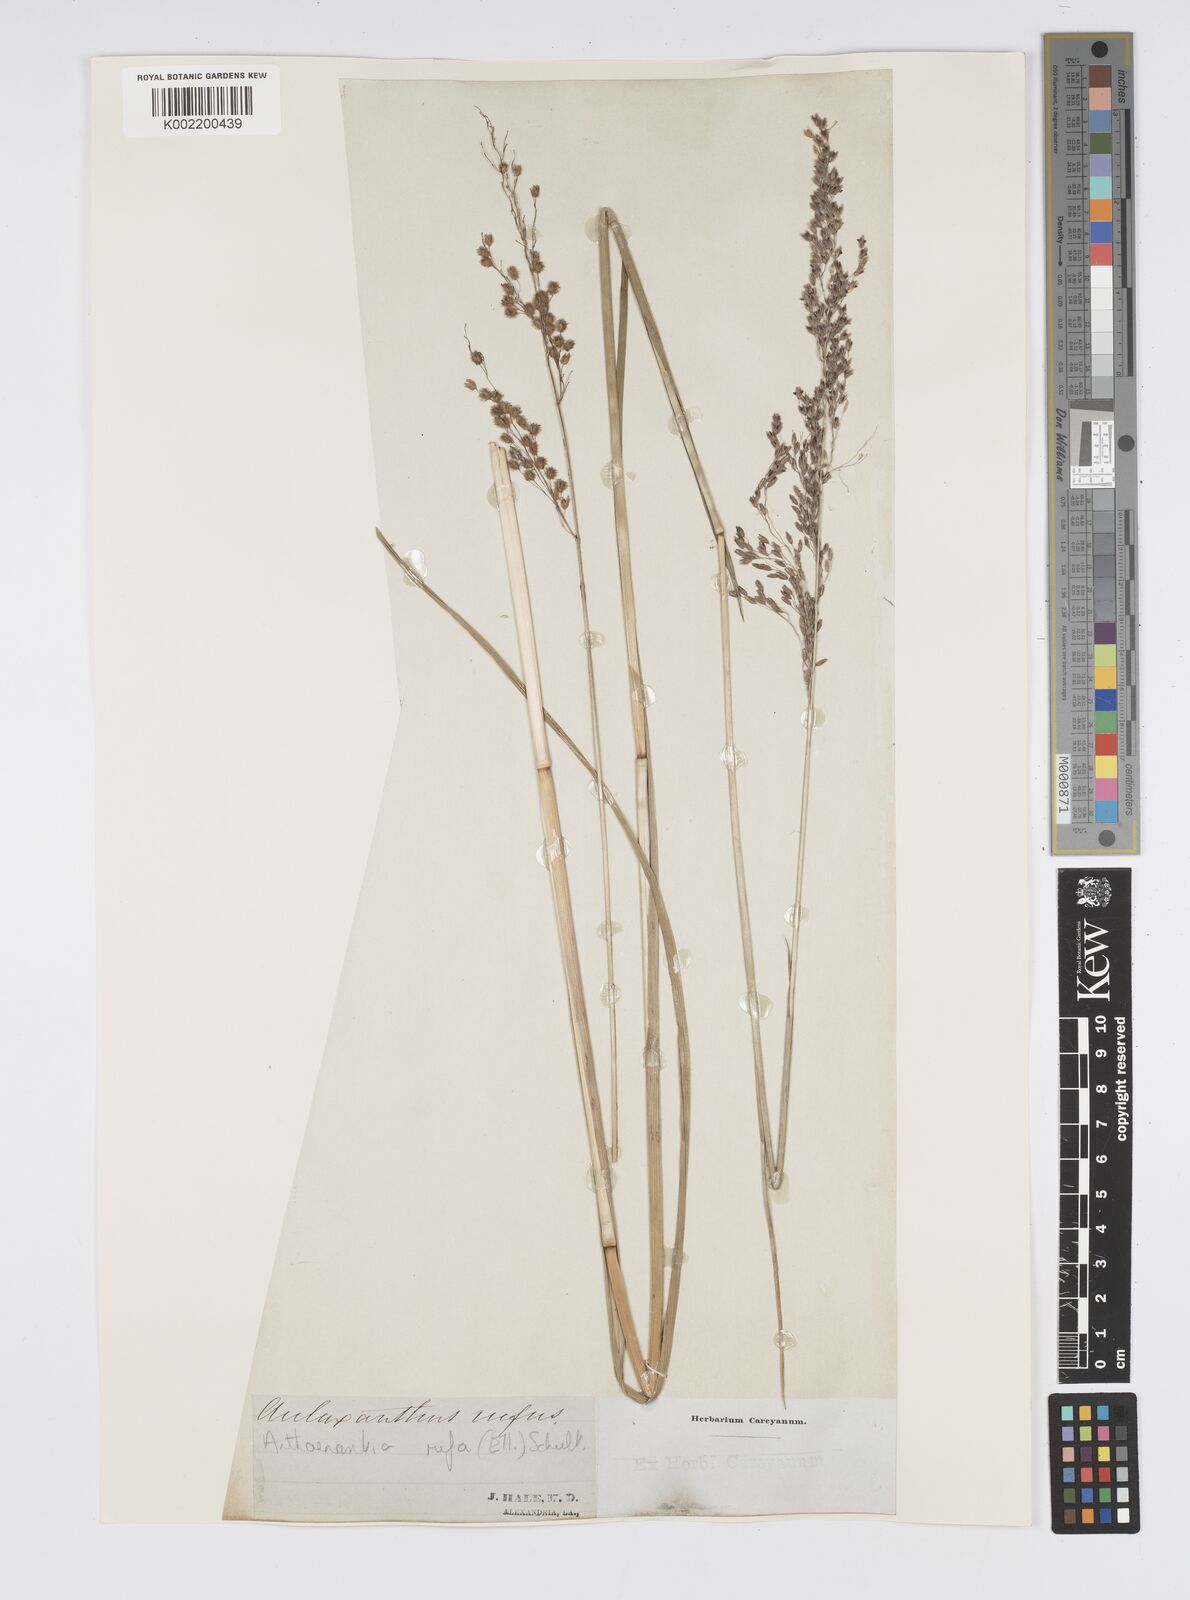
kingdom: Plantae
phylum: Tracheophyta
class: Liliopsida
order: Poales
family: Poaceae
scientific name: Poaceae
